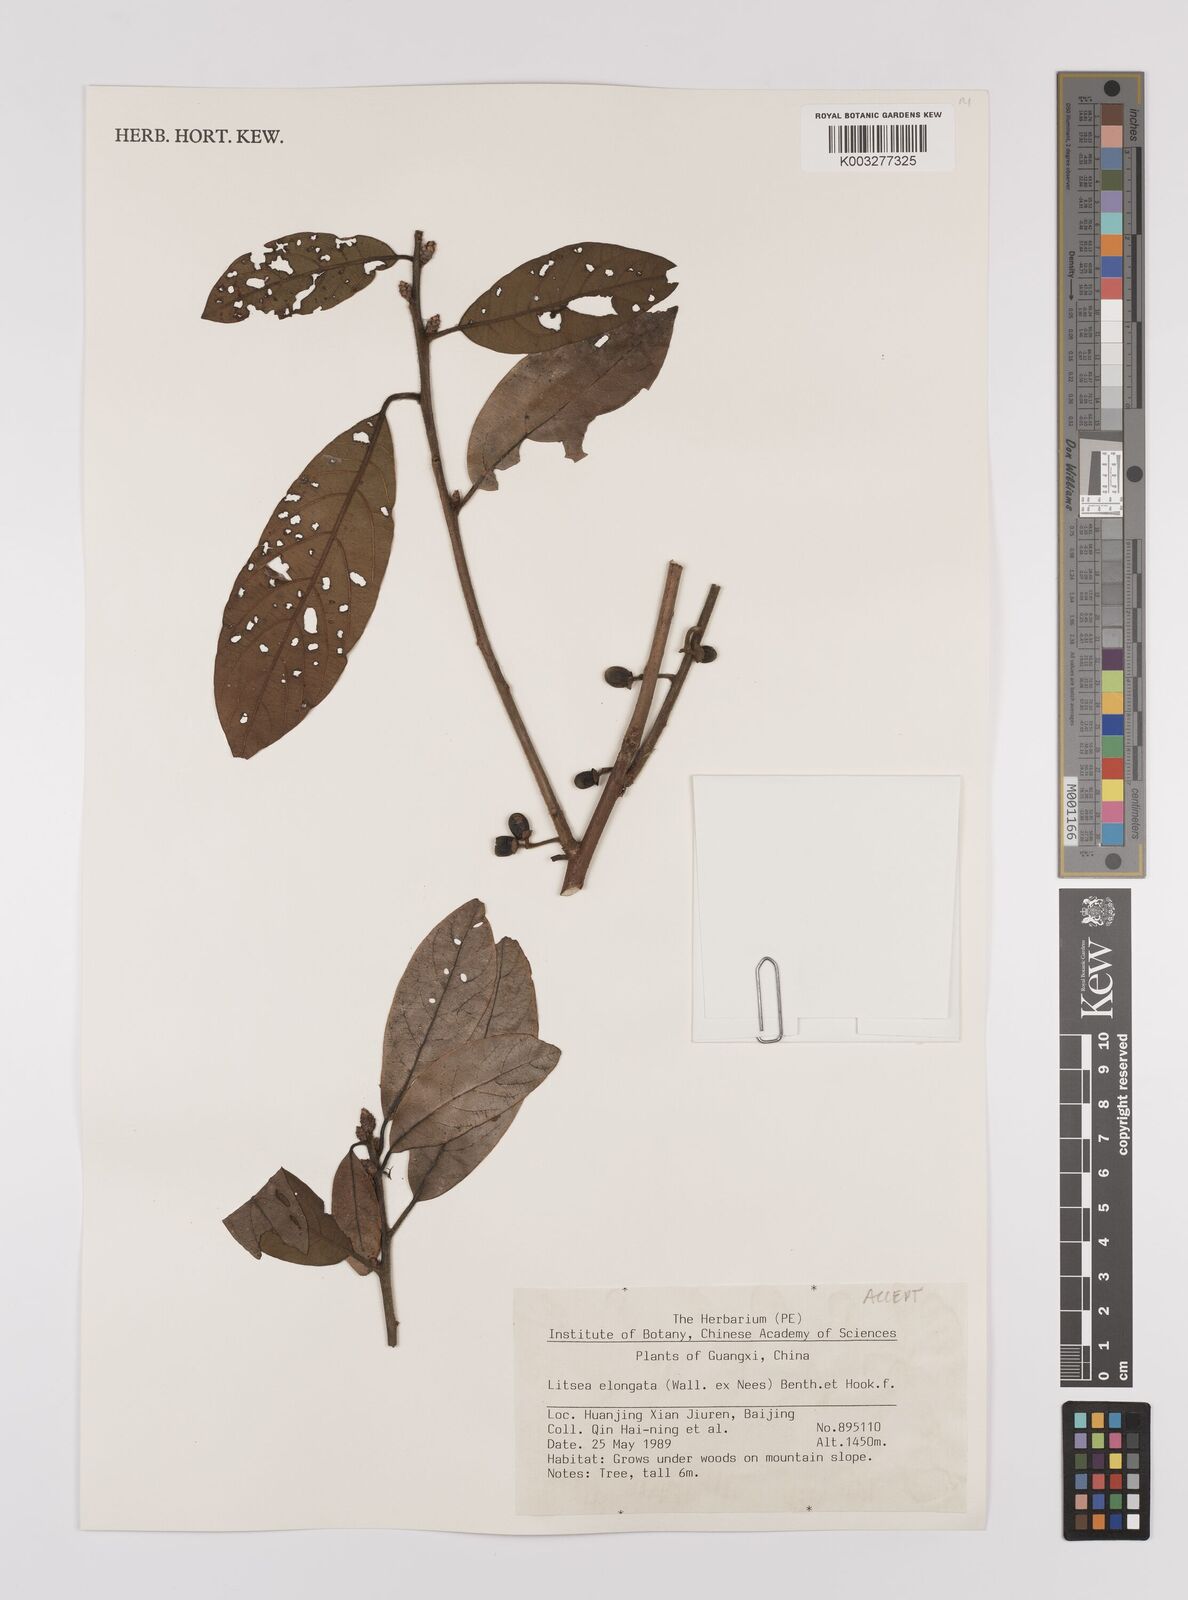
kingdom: Plantae
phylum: Tracheophyta
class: Magnoliopsida
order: Laurales
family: Lauraceae
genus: Litsea
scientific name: Litsea elongata
